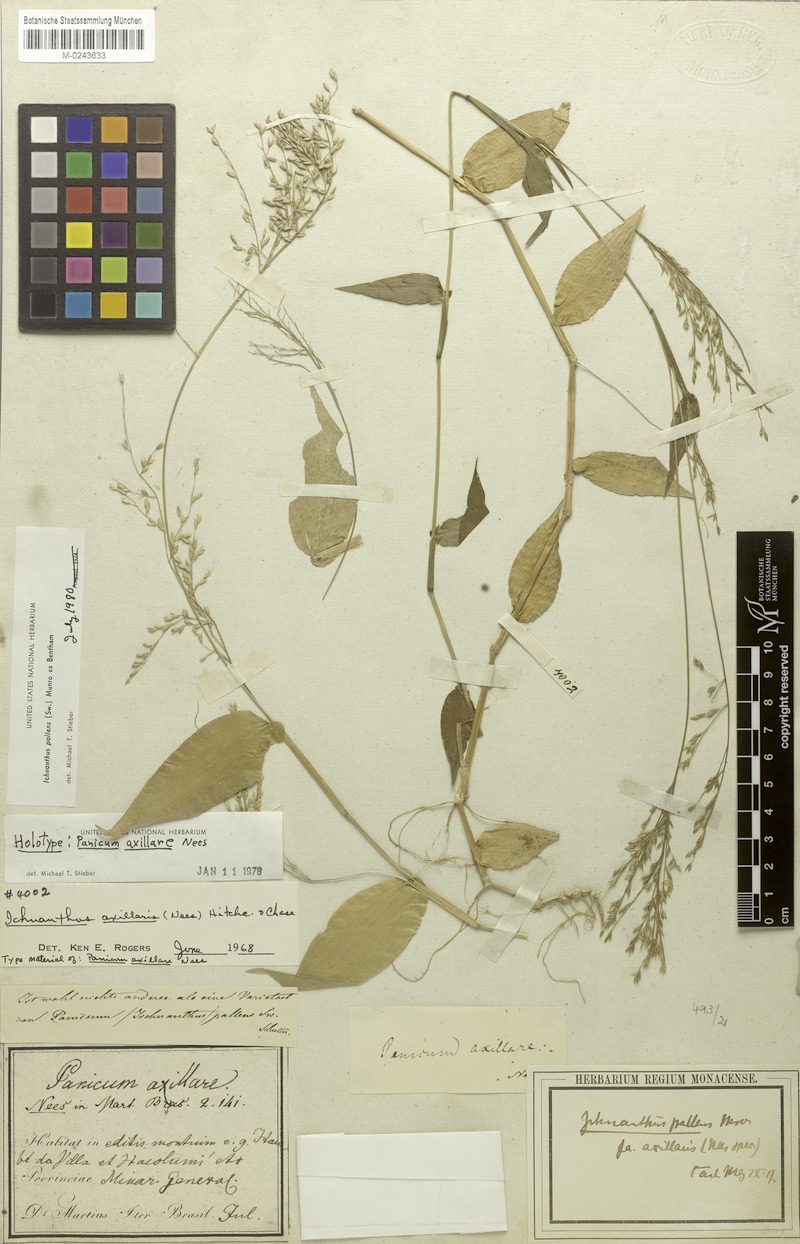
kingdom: Plantae
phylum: Tracheophyta
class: Liliopsida
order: Poales
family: Poaceae
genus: Ichnanthus
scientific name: Ichnanthus pallens
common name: Water grass
